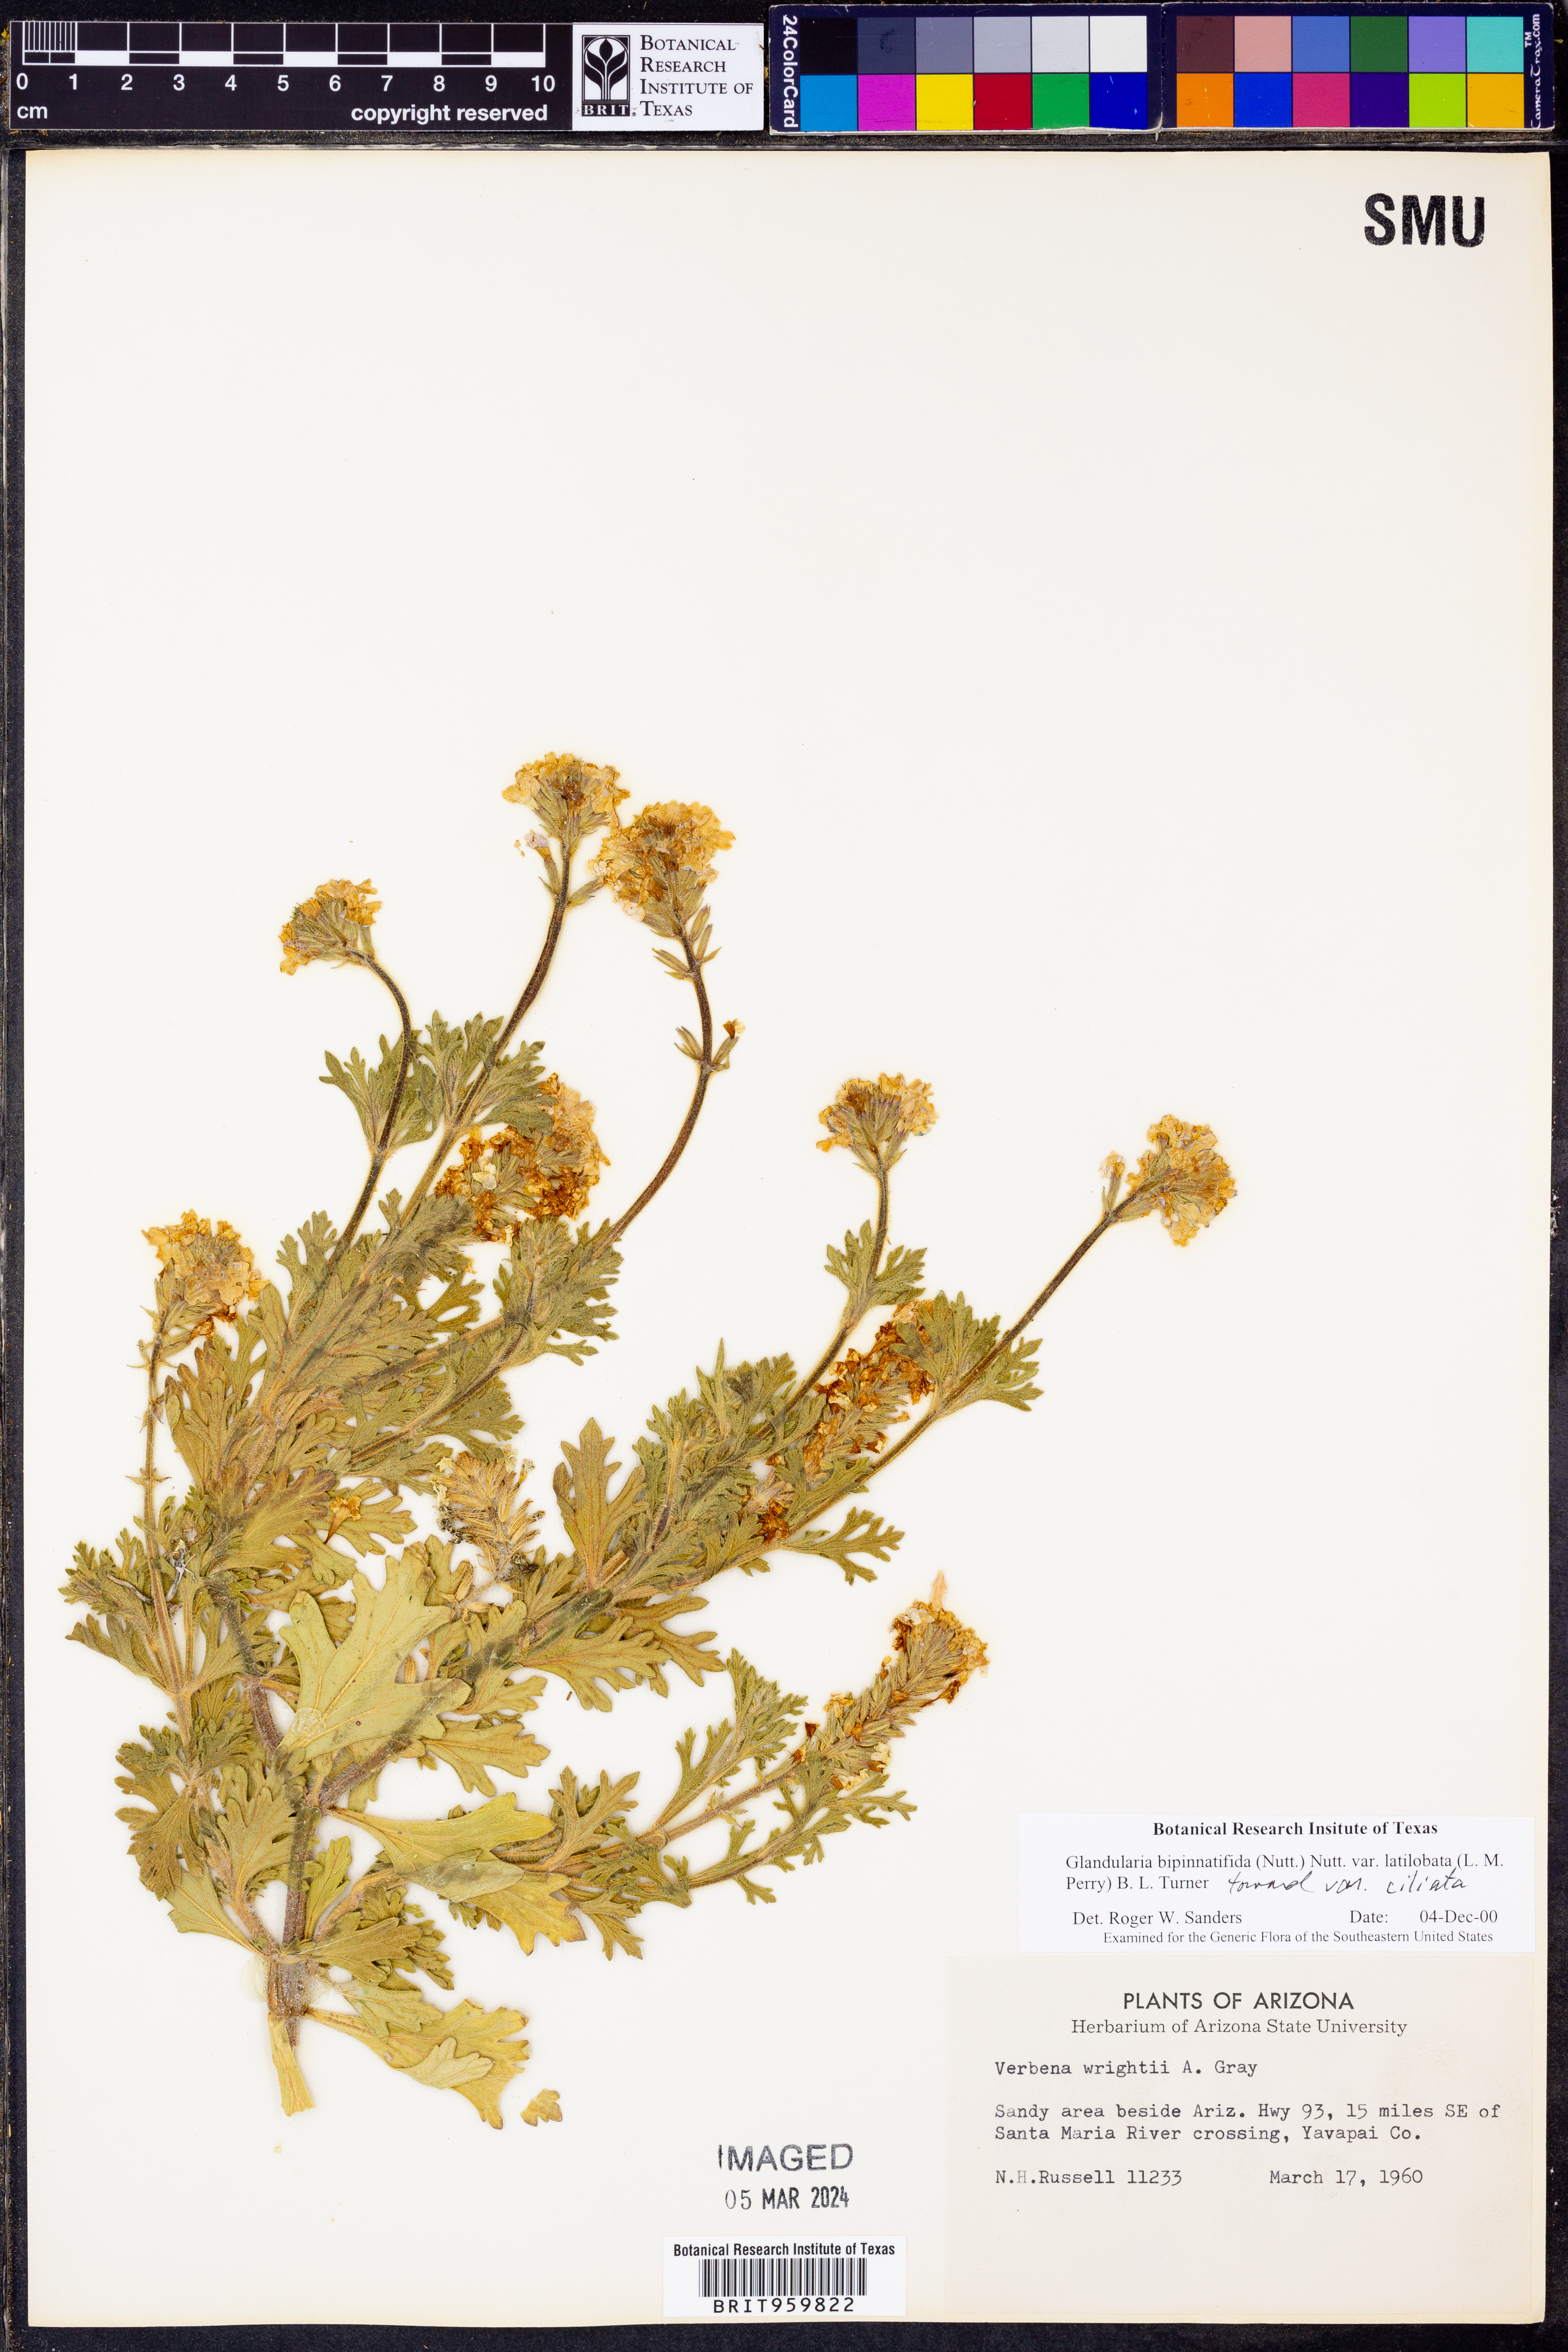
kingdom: Plantae
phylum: Tracheophyta
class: Magnoliopsida
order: Lamiales
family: Verbenaceae
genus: Verbena
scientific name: Verbena gooddingii
